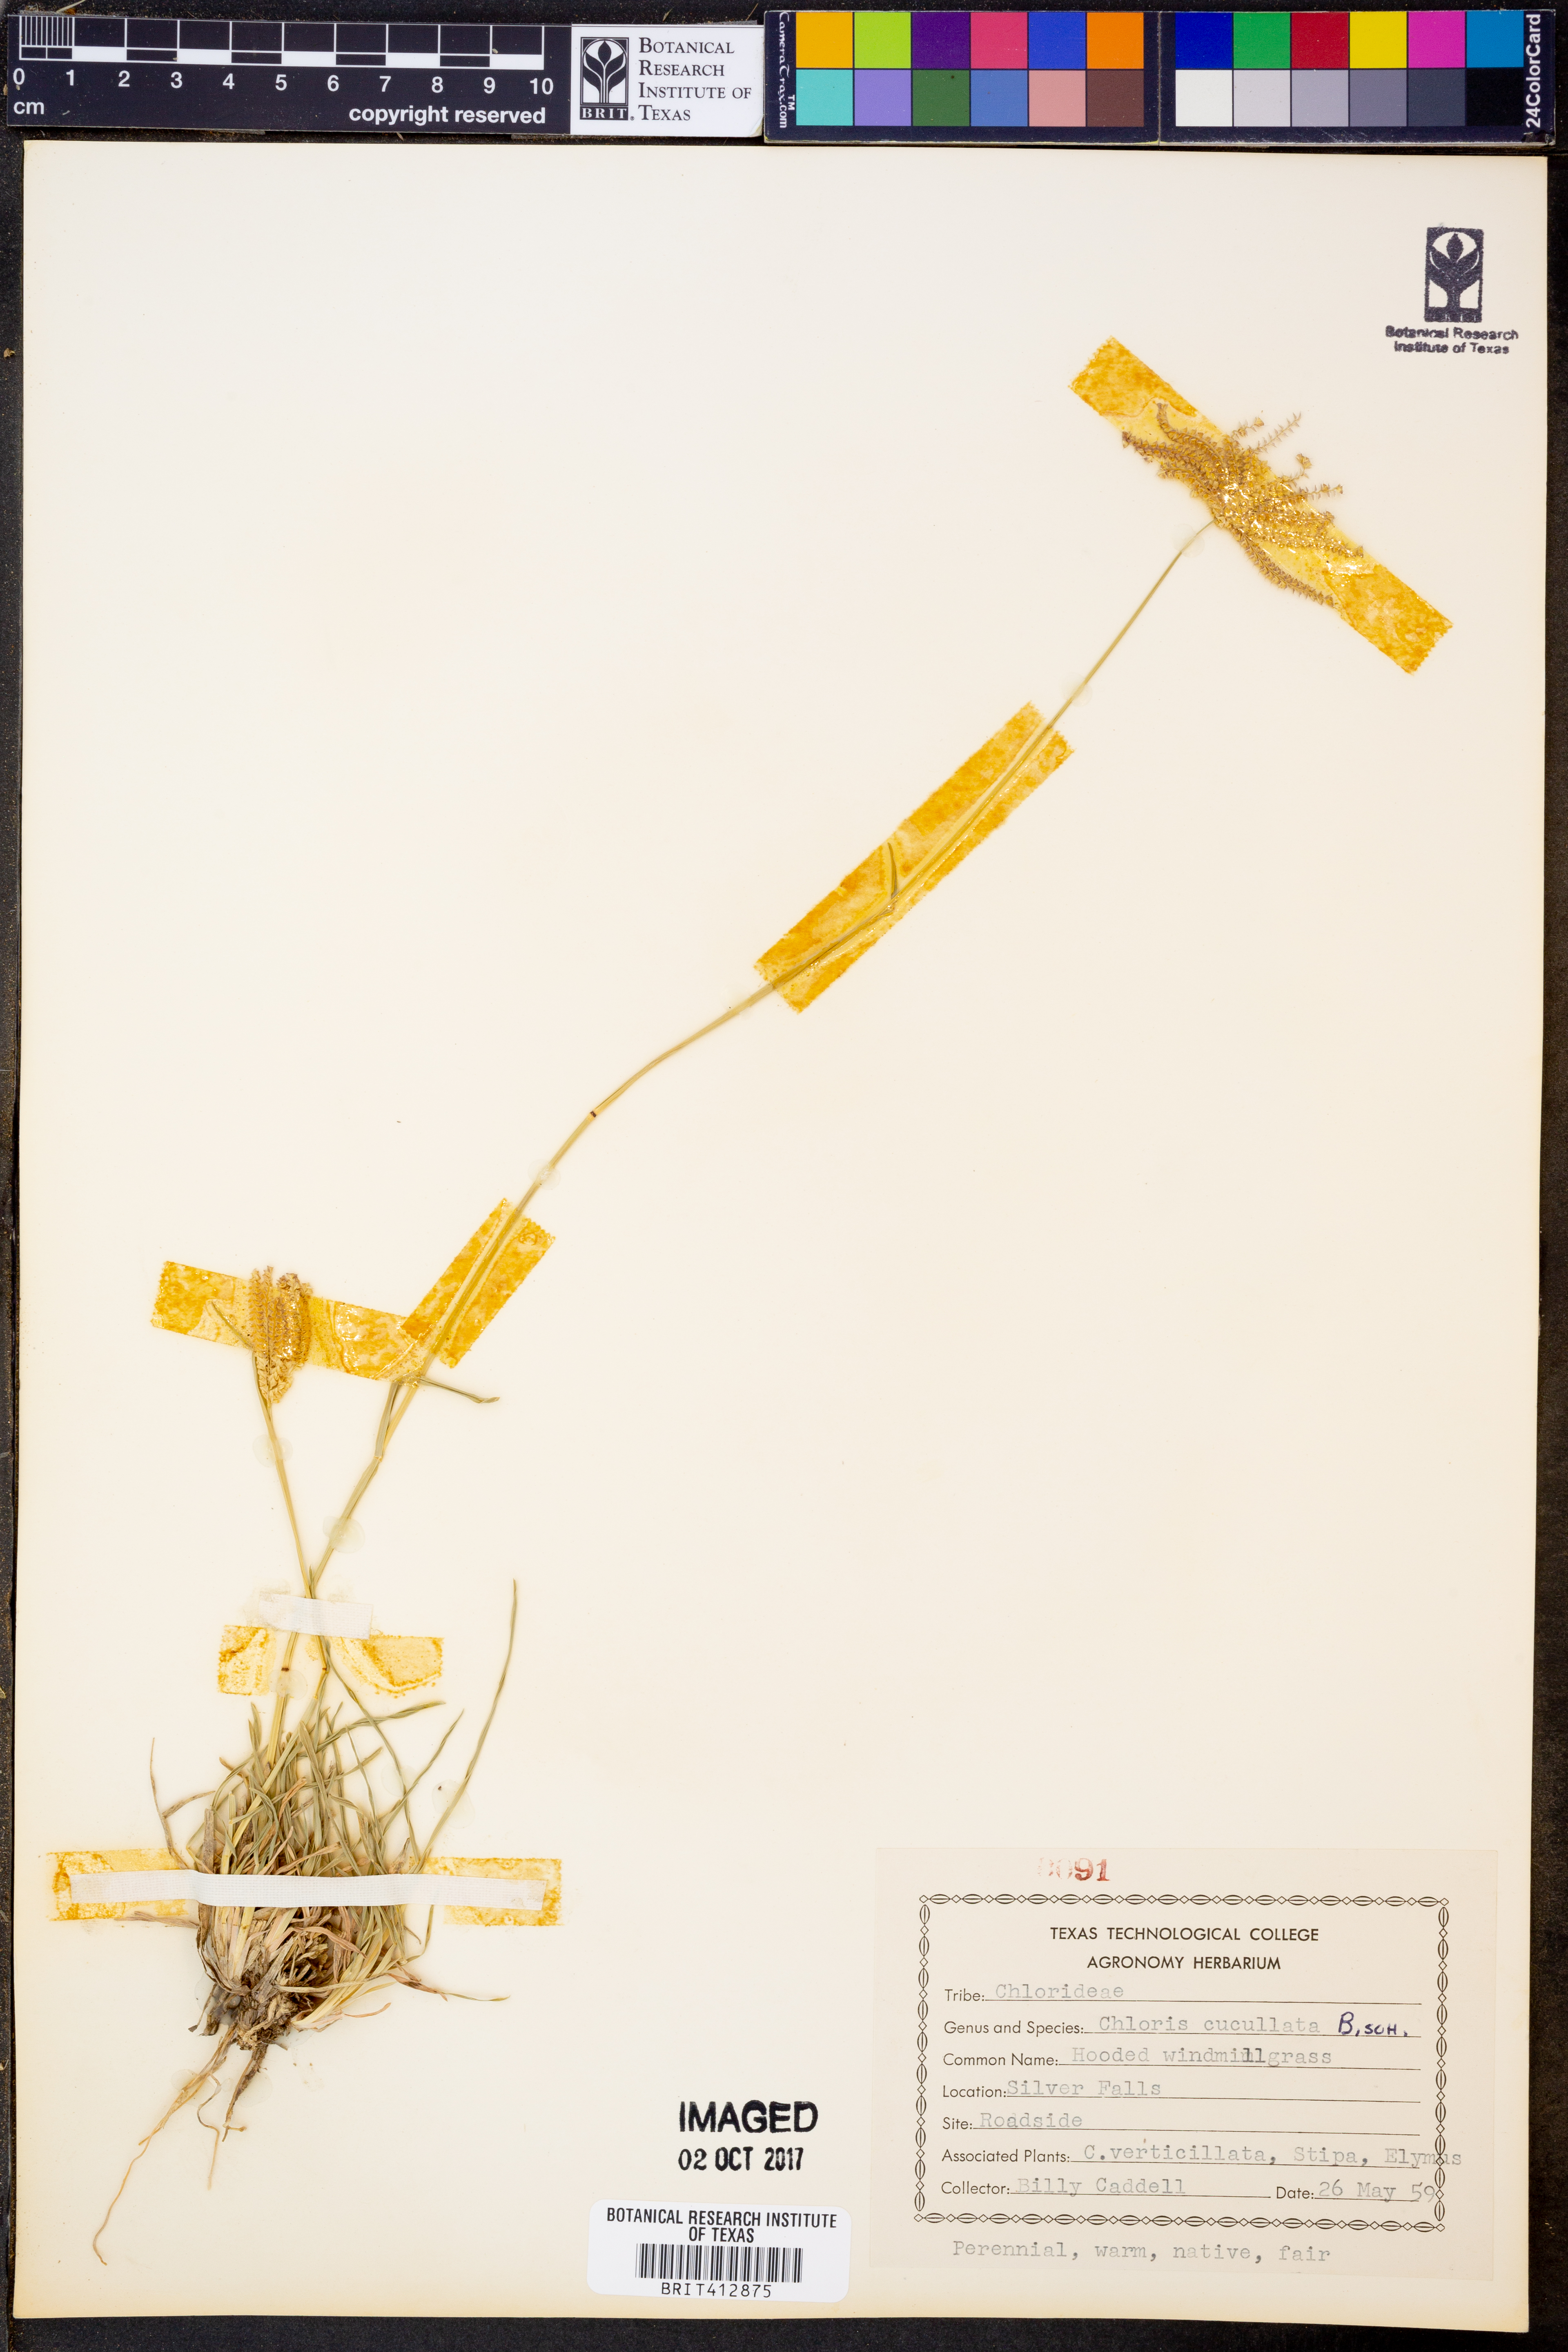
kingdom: Plantae
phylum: Tracheophyta
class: Liliopsida
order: Poales
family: Poaceae
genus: Chloris
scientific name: Chloris cucullata
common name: Hooded windmill grass
